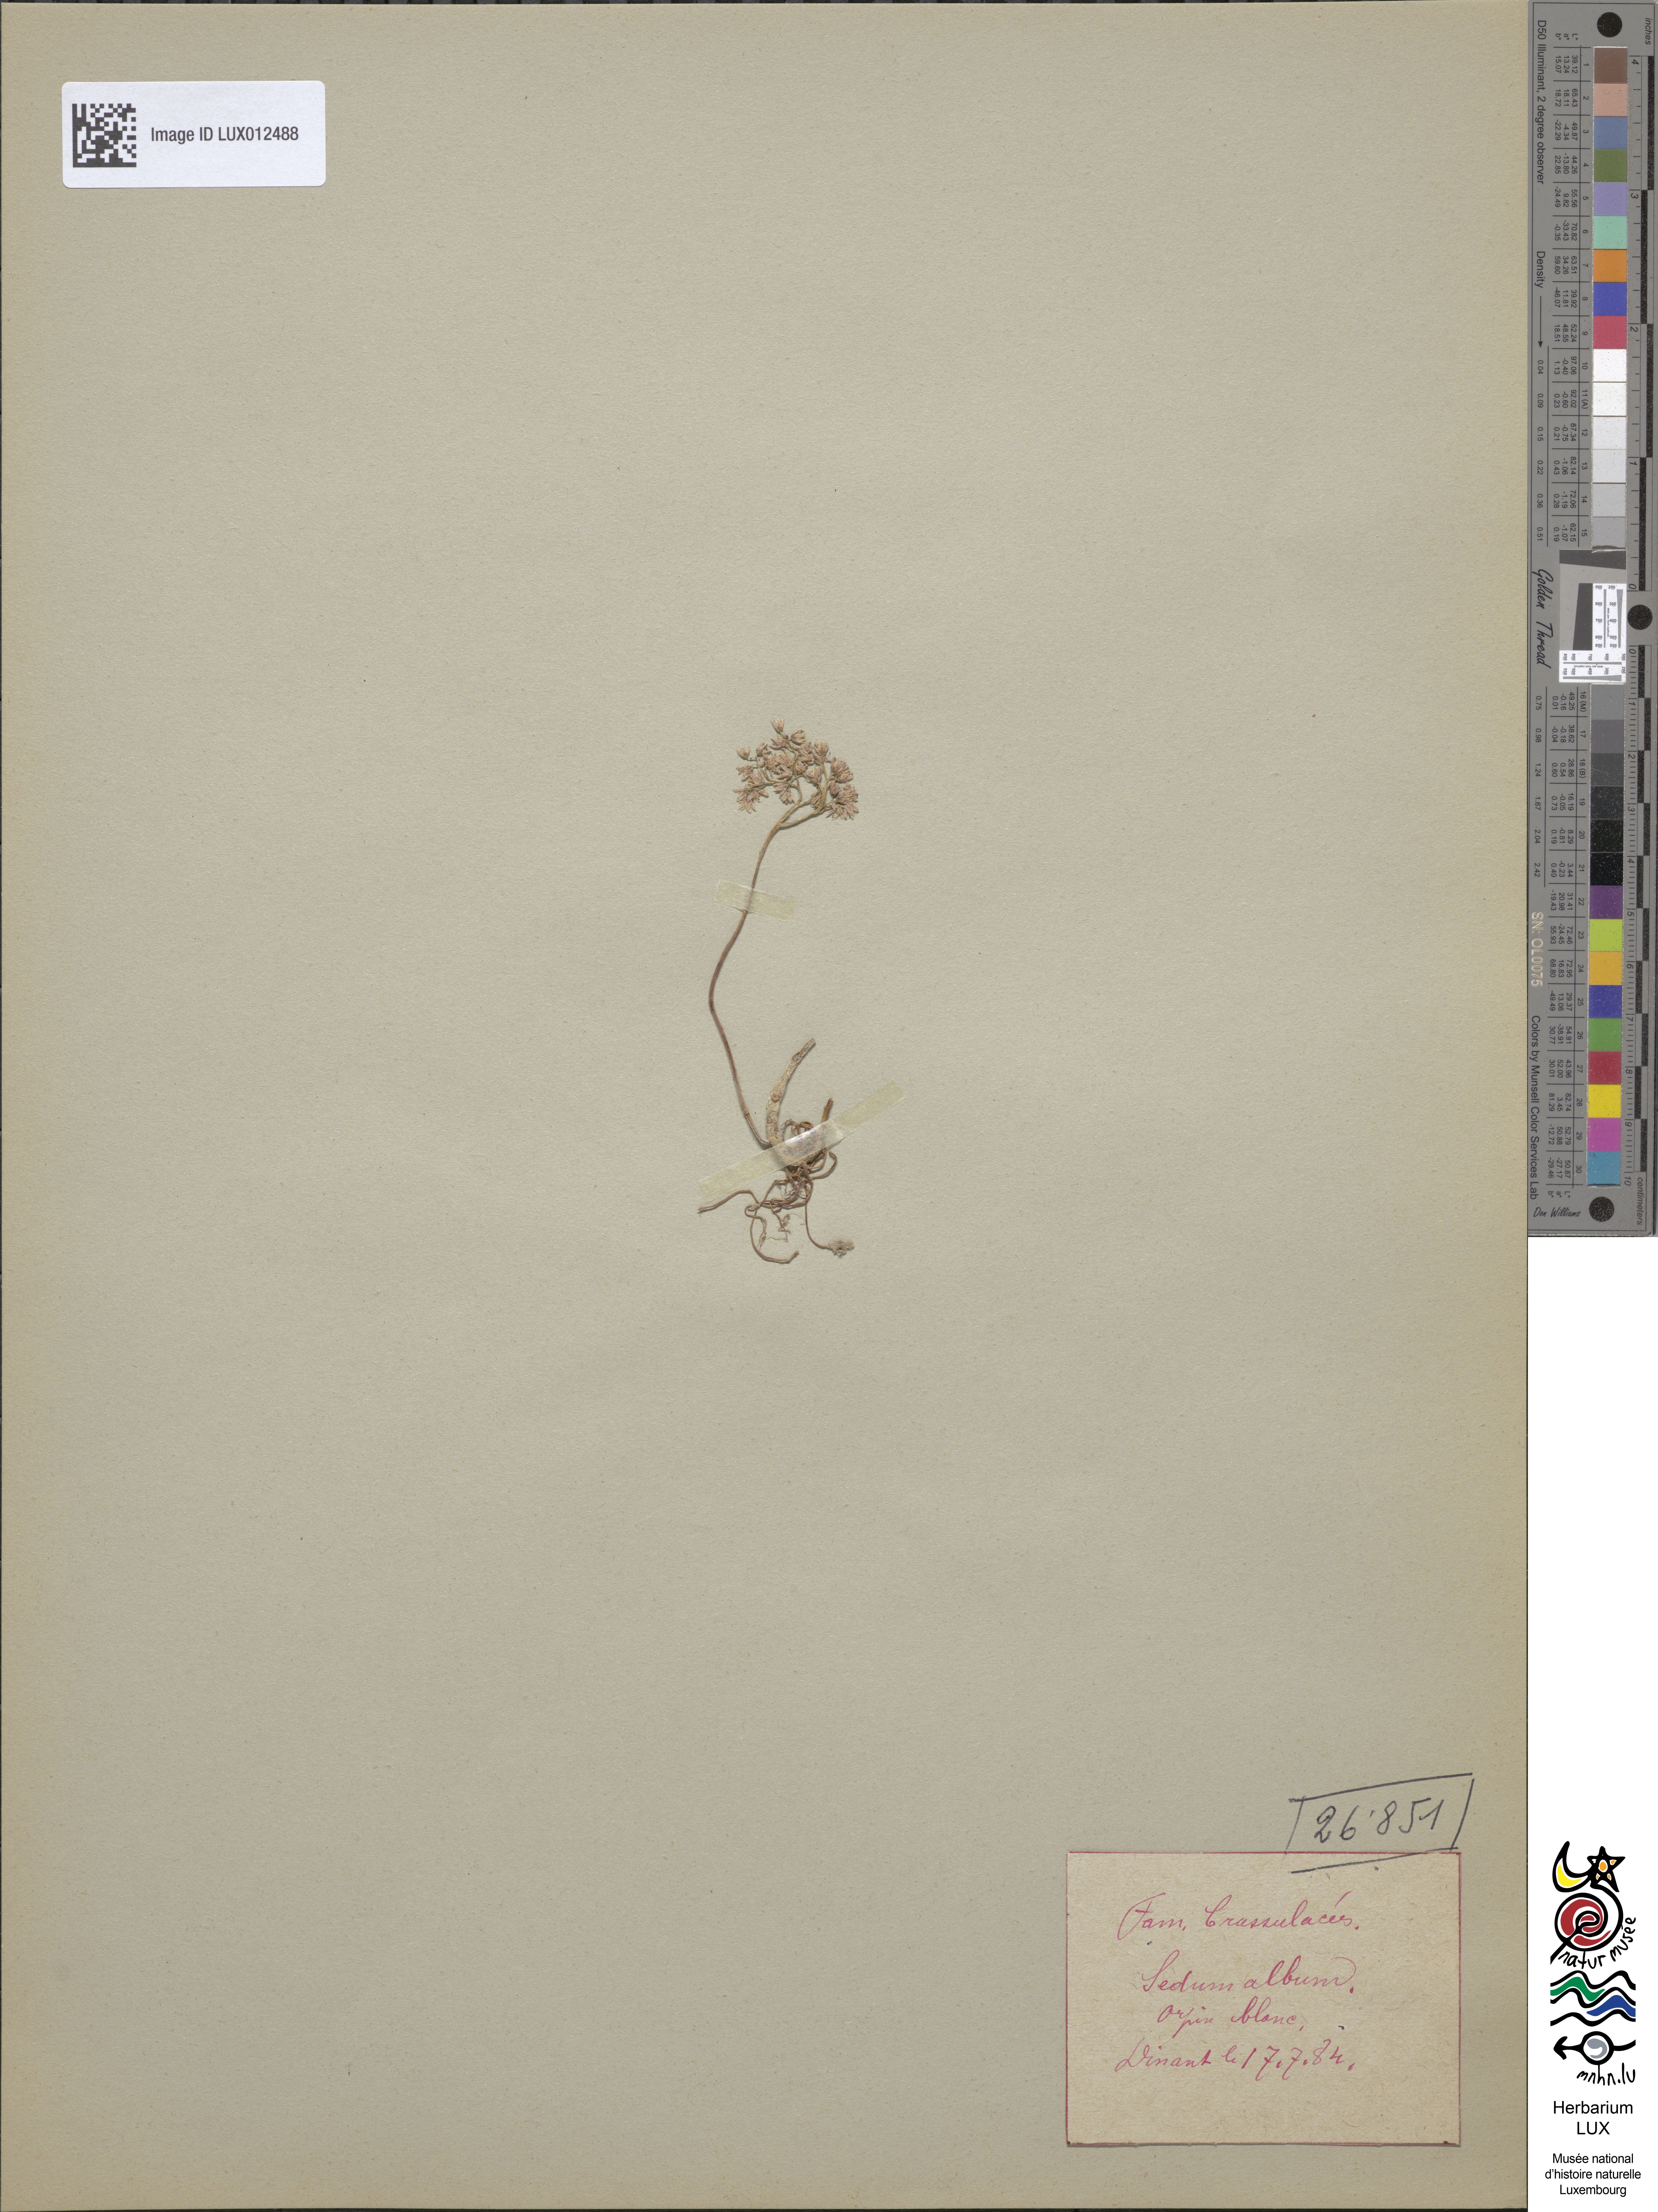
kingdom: Plantae
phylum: Tracheophyta
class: Magnoliopsida
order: Saxifragales
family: Crassulaceae
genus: Sedum
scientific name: Sedum album
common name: White stonecrop
